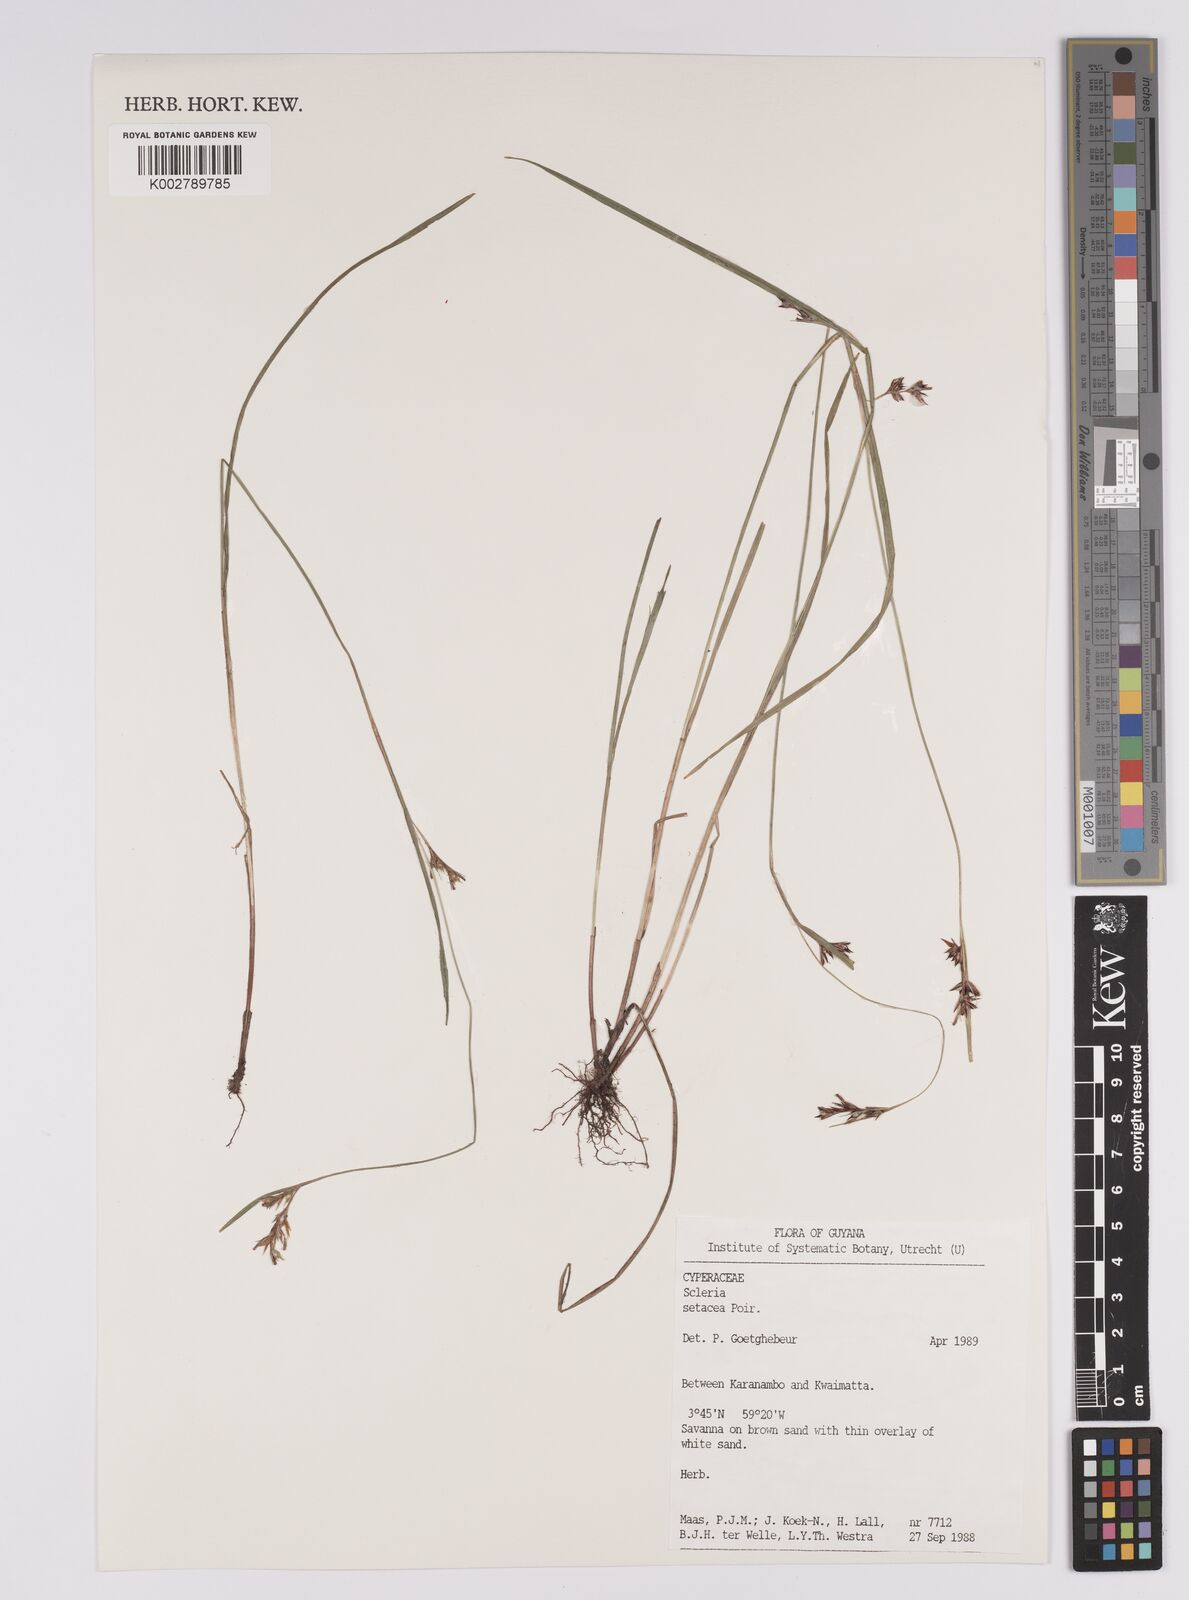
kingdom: Plantae
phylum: Tracheophyta
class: Liliopsida
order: Poales
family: Cyperaceae
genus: Rhynchospora
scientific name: Rhynchospora tenerrima
